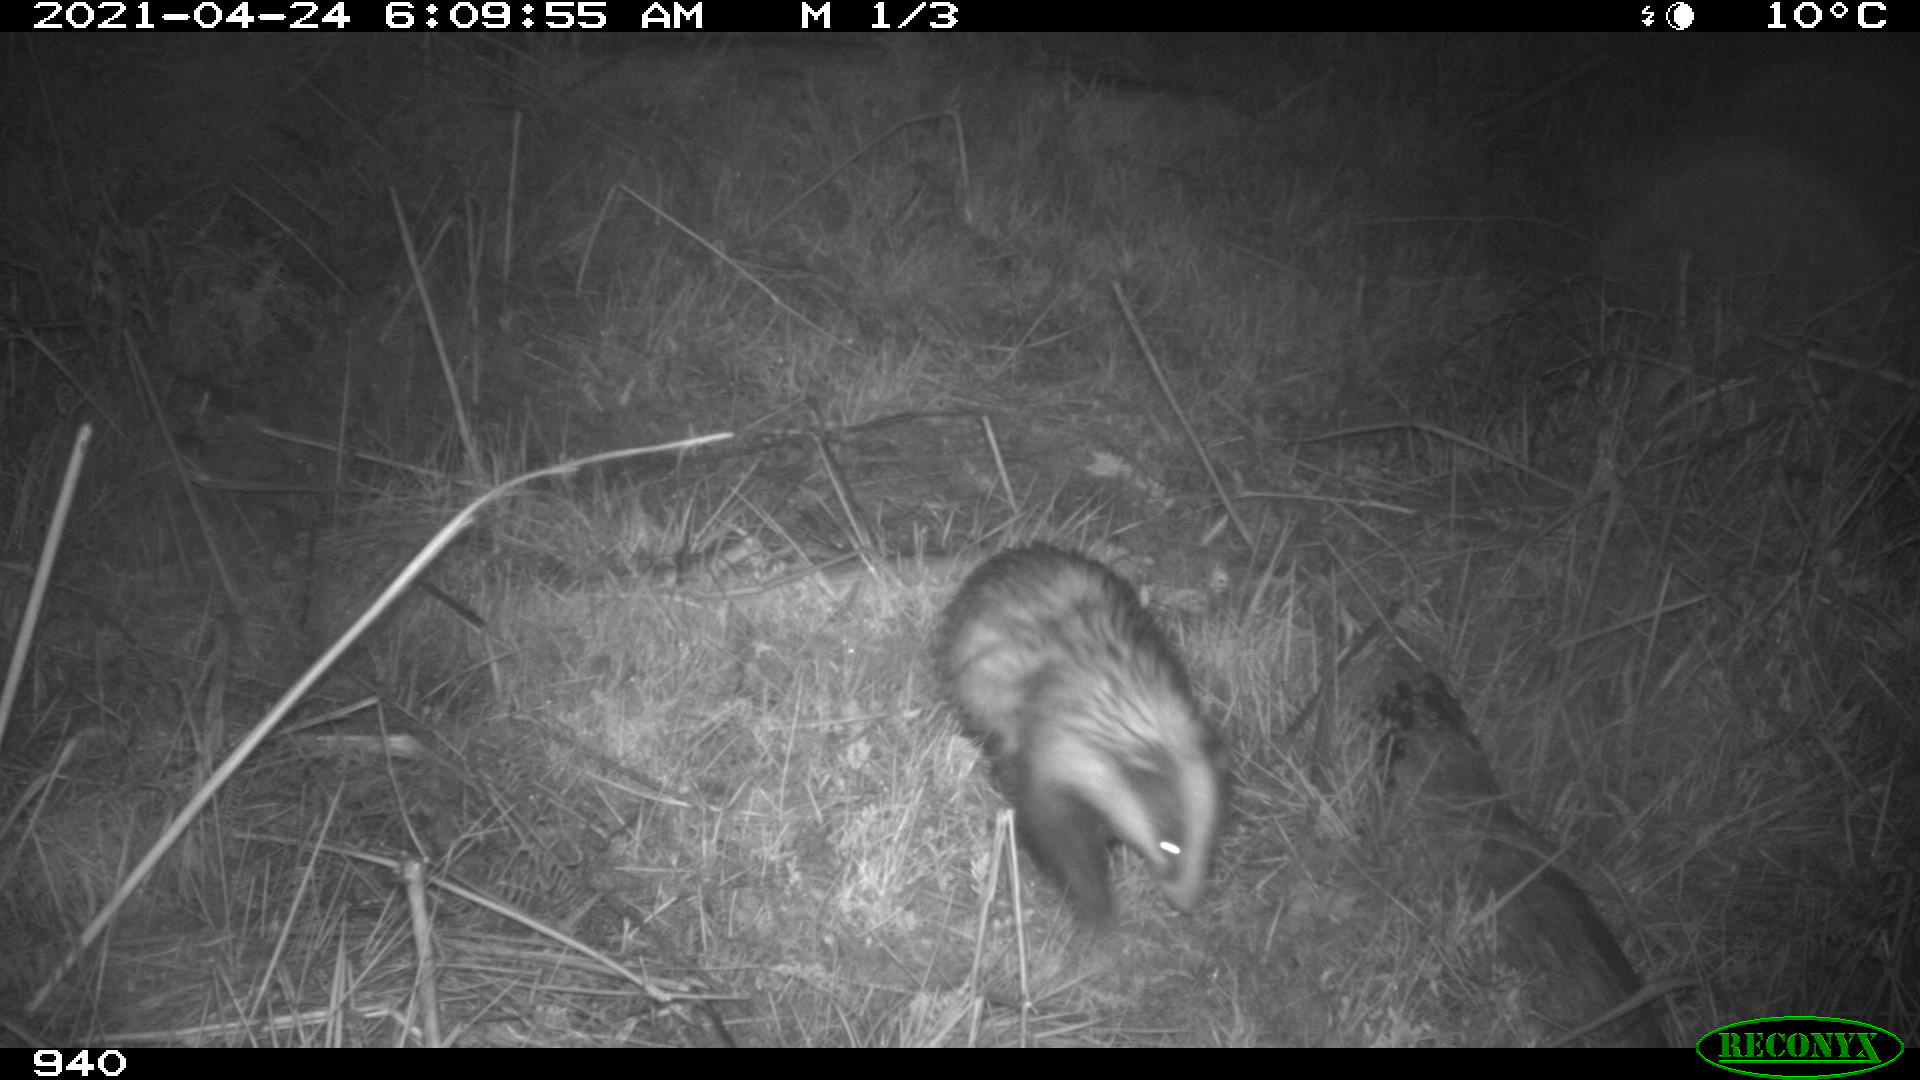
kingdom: Animalia
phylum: Chordata
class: Mammalia
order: Carnivora
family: Mustelidae
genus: Meles
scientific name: Meles meles
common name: Eurasian badger
